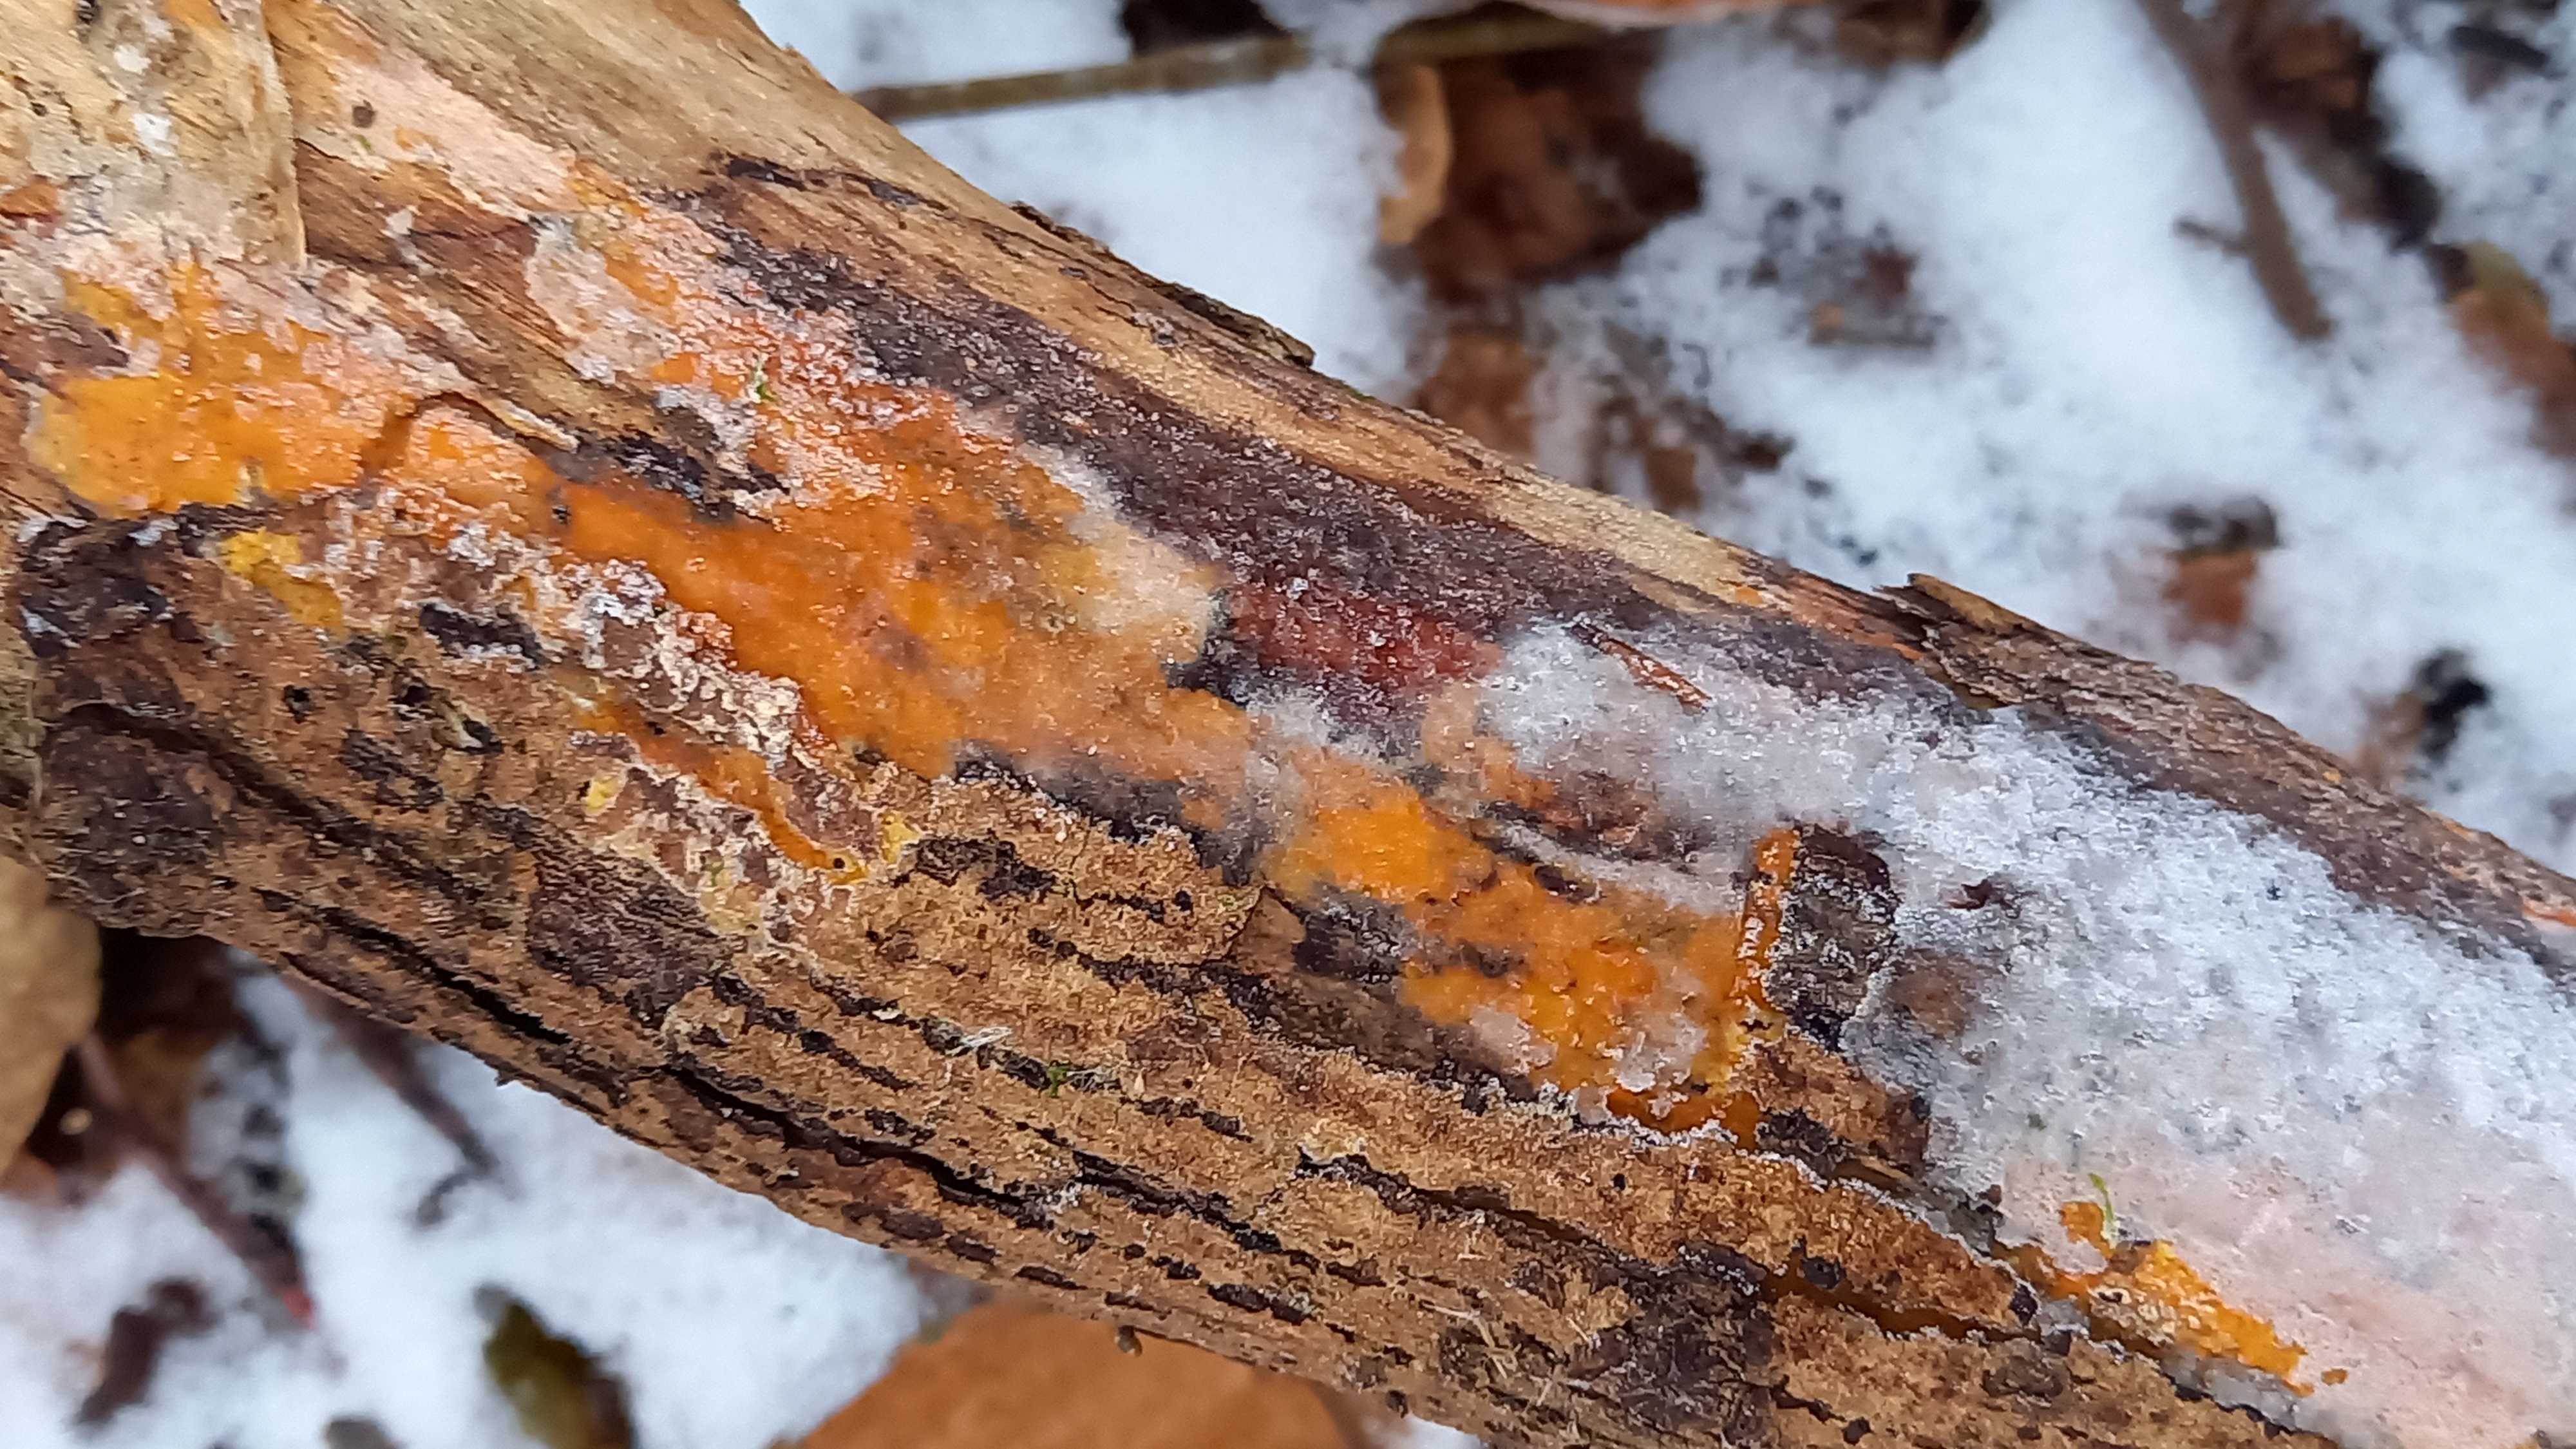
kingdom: Fungi
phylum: Basidiomycota
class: Agaricomycetes
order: Russulales
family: Peniophoraceae
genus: Peniophora
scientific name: Peniophora incarnata
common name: laksefarvet voksskind
